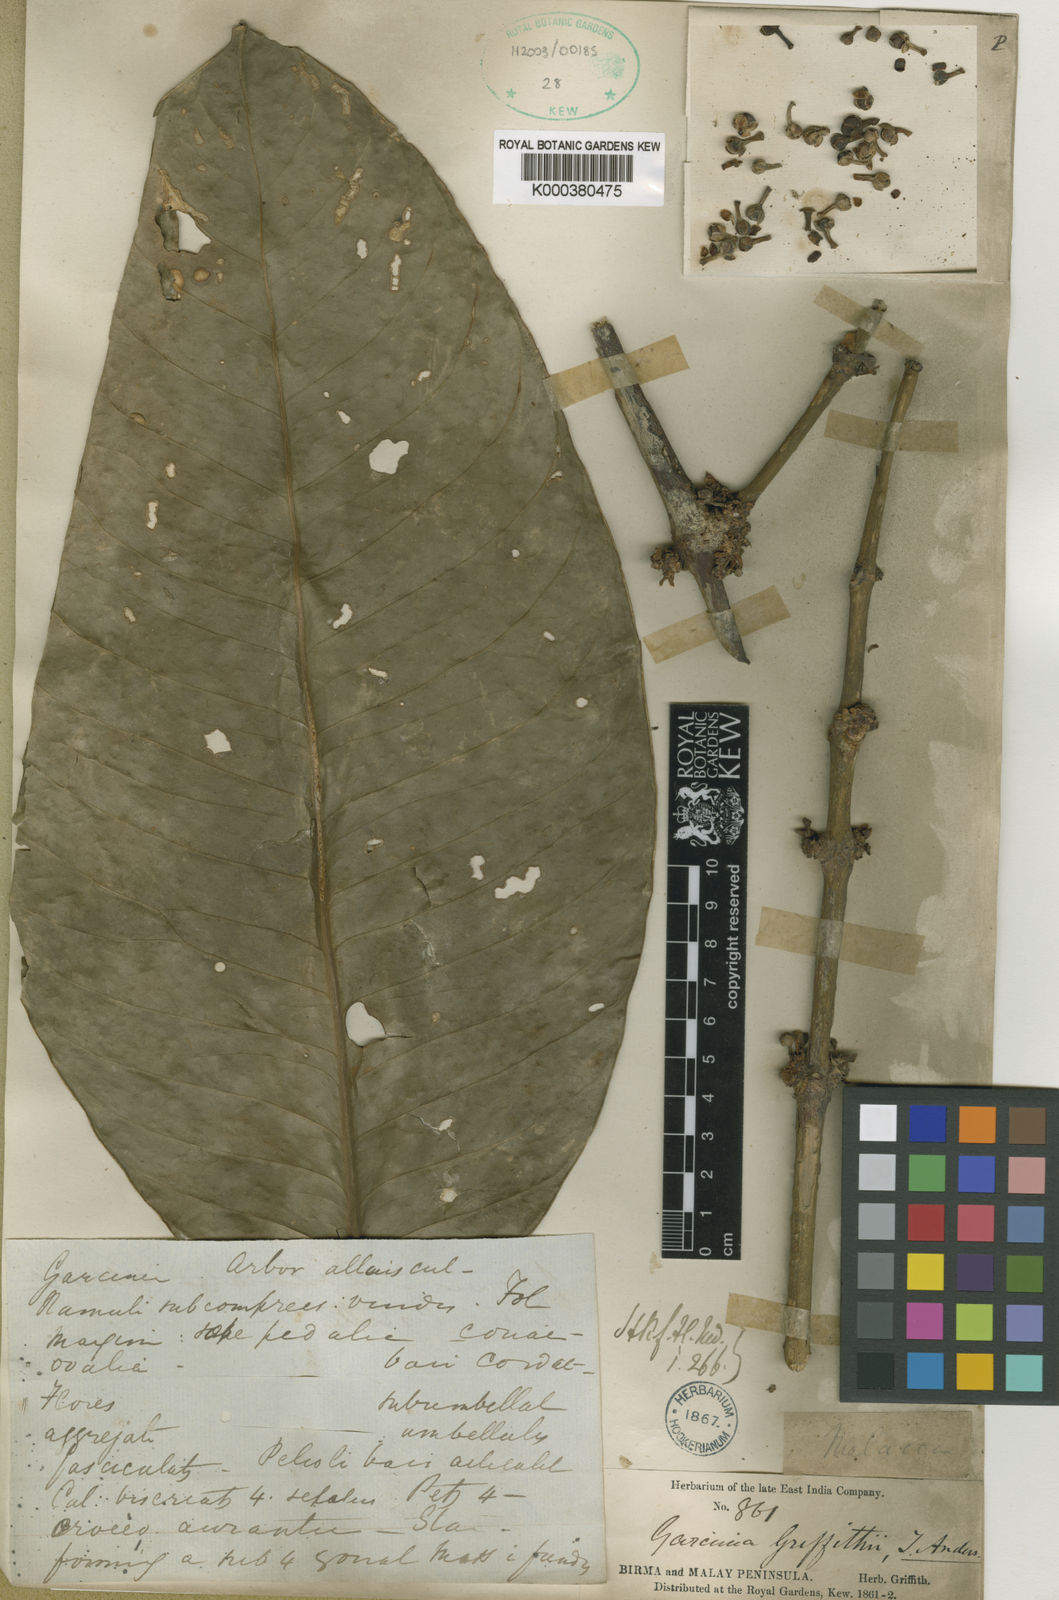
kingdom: Plantae
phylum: Tracheophyta
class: Magnoliopsida
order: Malpighiales
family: Clusiaceae
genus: Garcinia
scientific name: Garcinia griffithii
